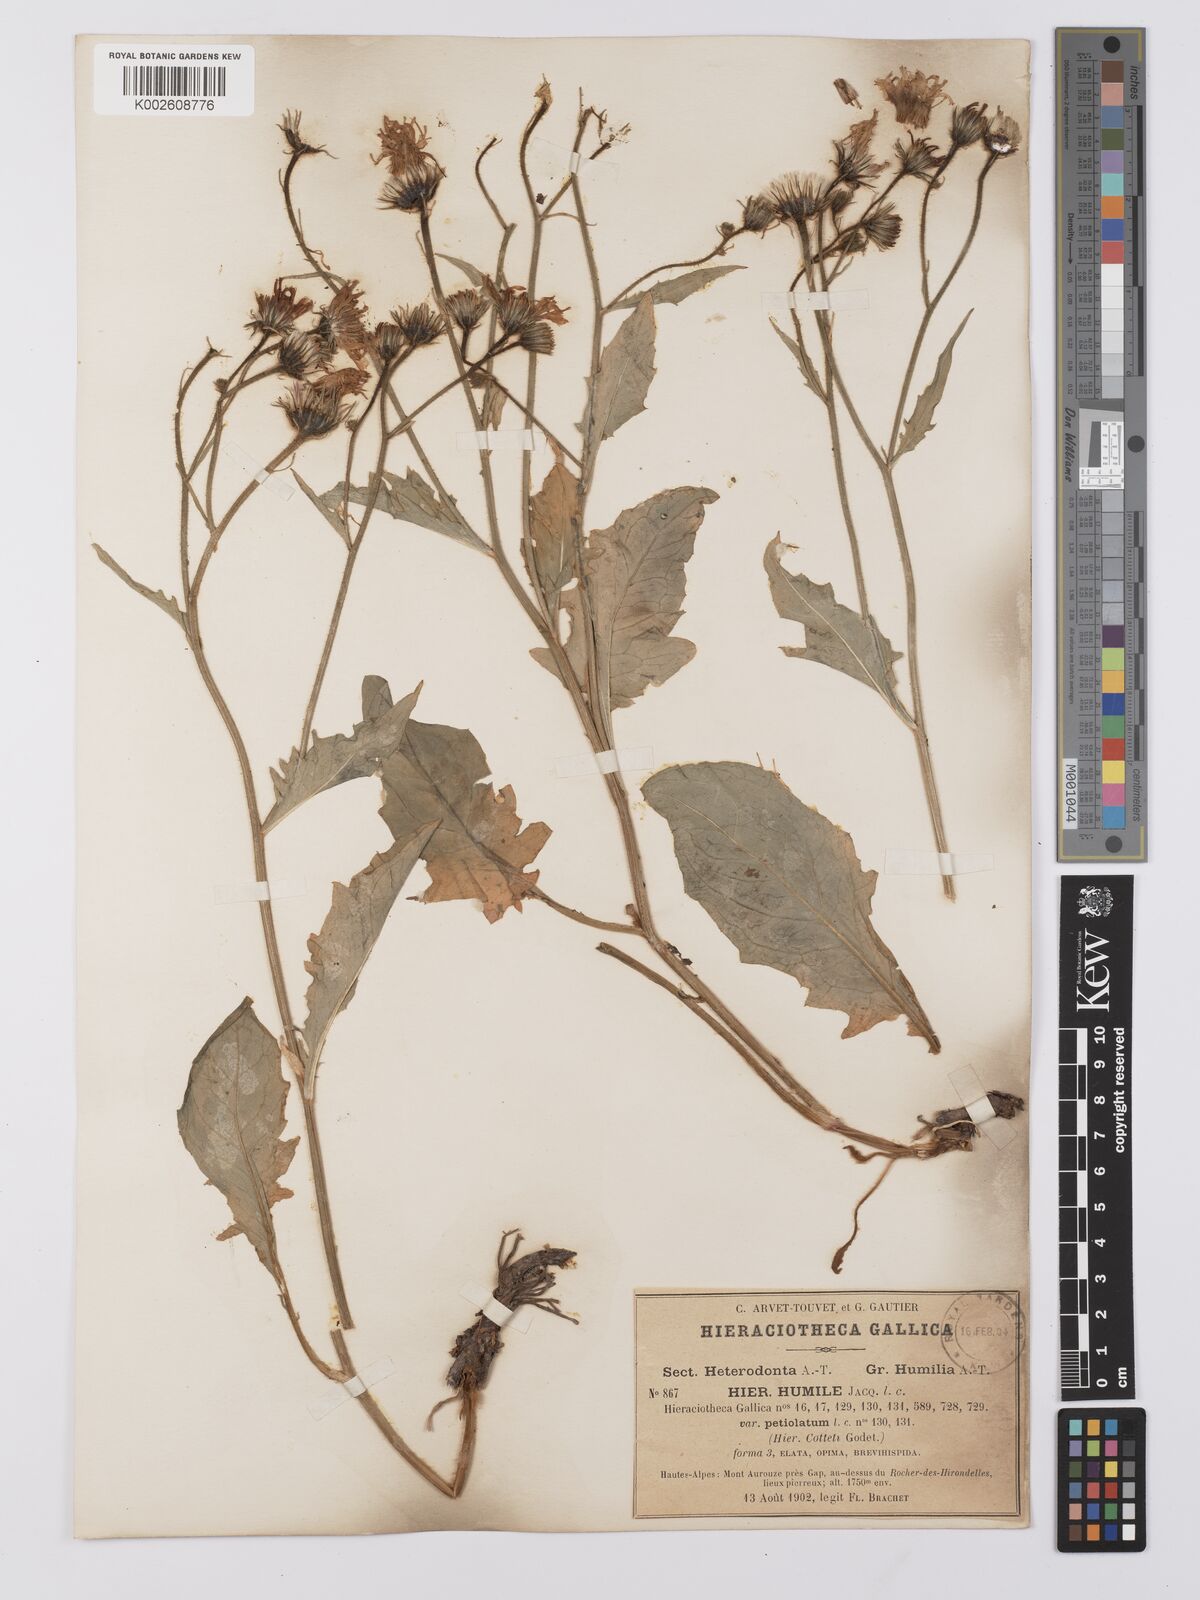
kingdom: Plantae
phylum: Tracheophyta
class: Magnoliopsida
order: Asterales
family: Asteraceae
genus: Hieracium
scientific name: Hieracium humile
